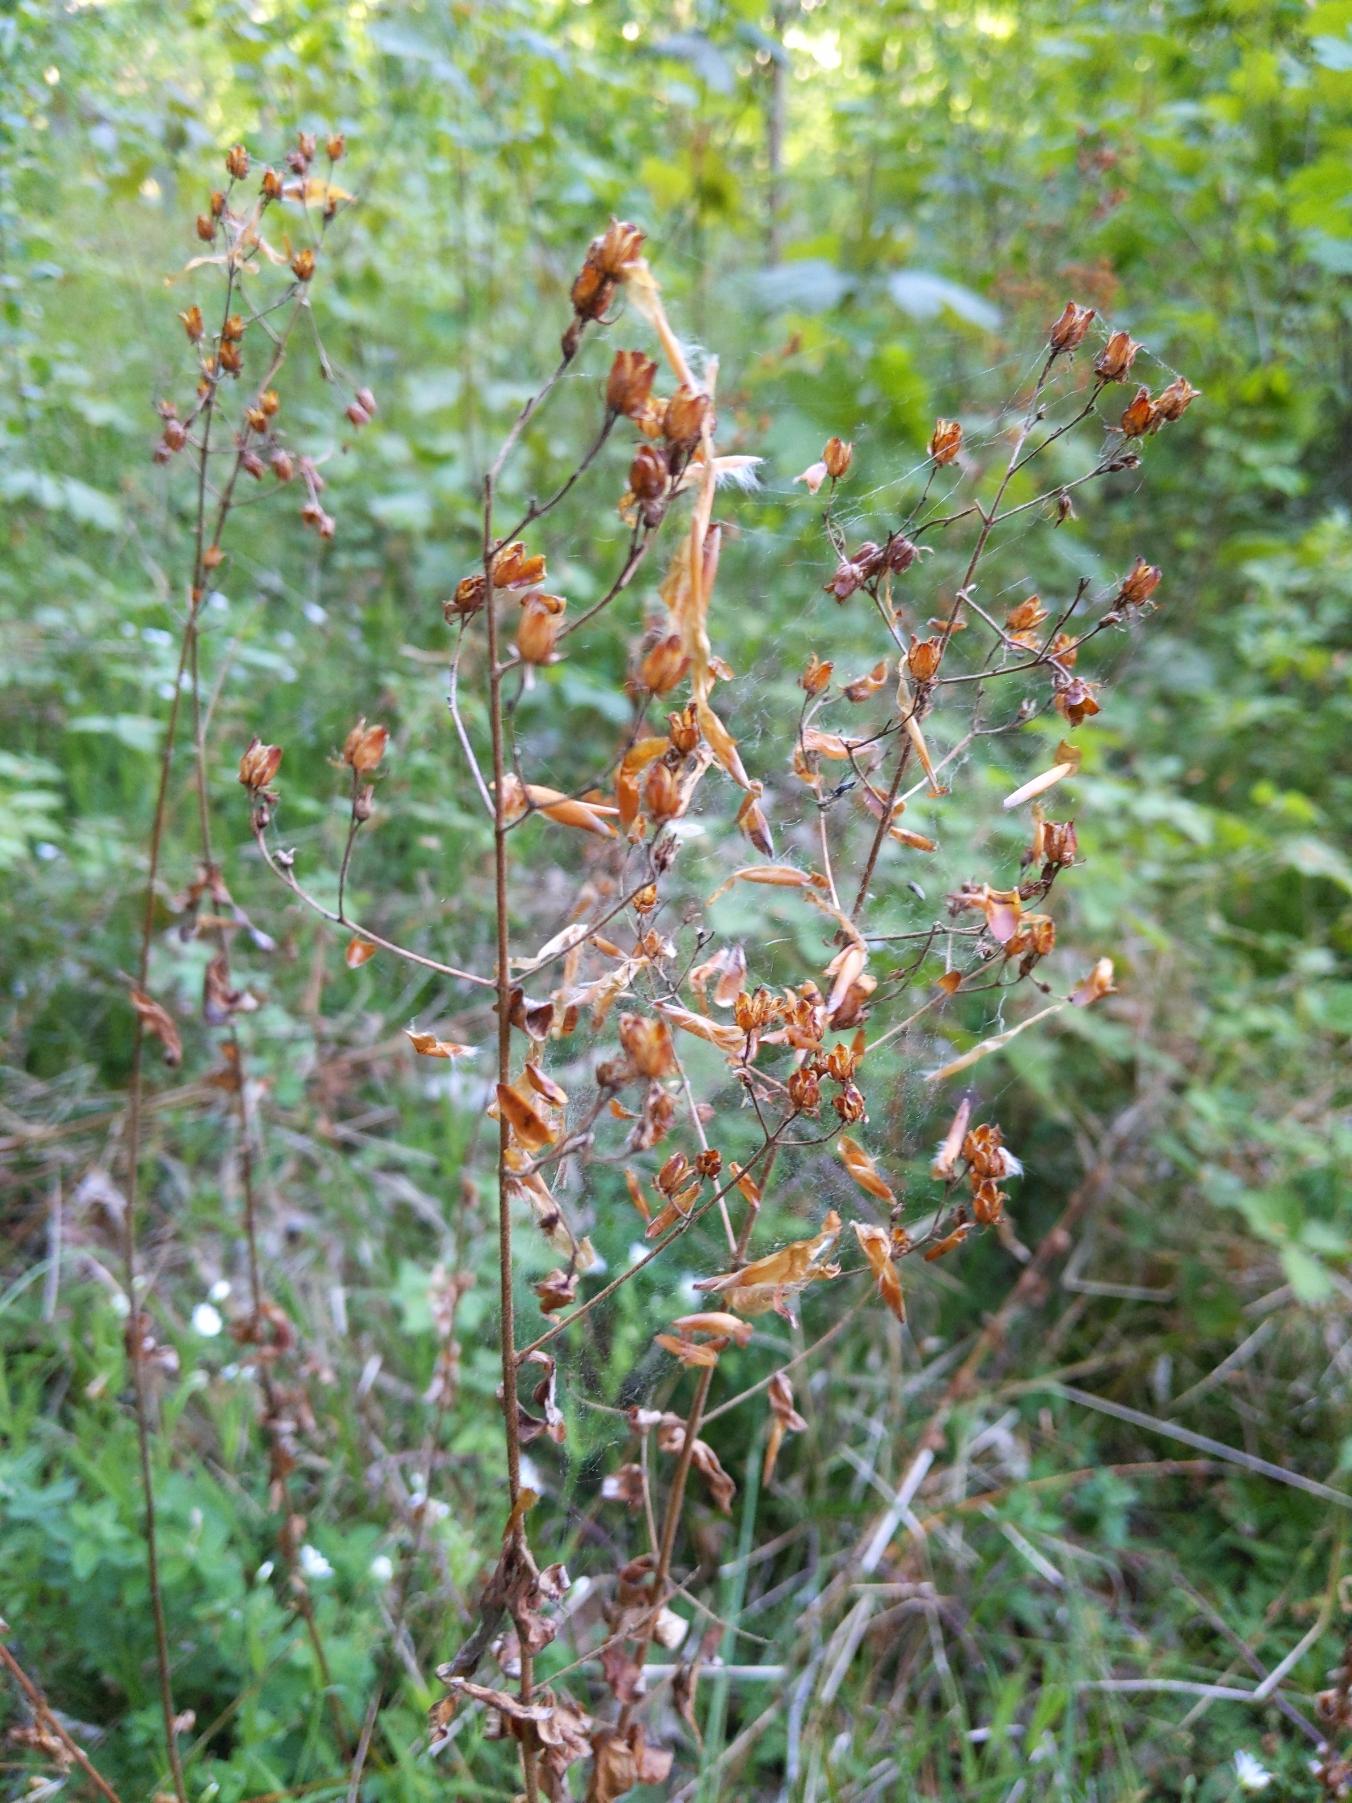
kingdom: Plantae
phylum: Tracheophyta
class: Magnoliopsida
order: Malpighiales
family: Hypericaceae
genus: Hypericum
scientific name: Hypericum hirsutum
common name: Lådden perikon
